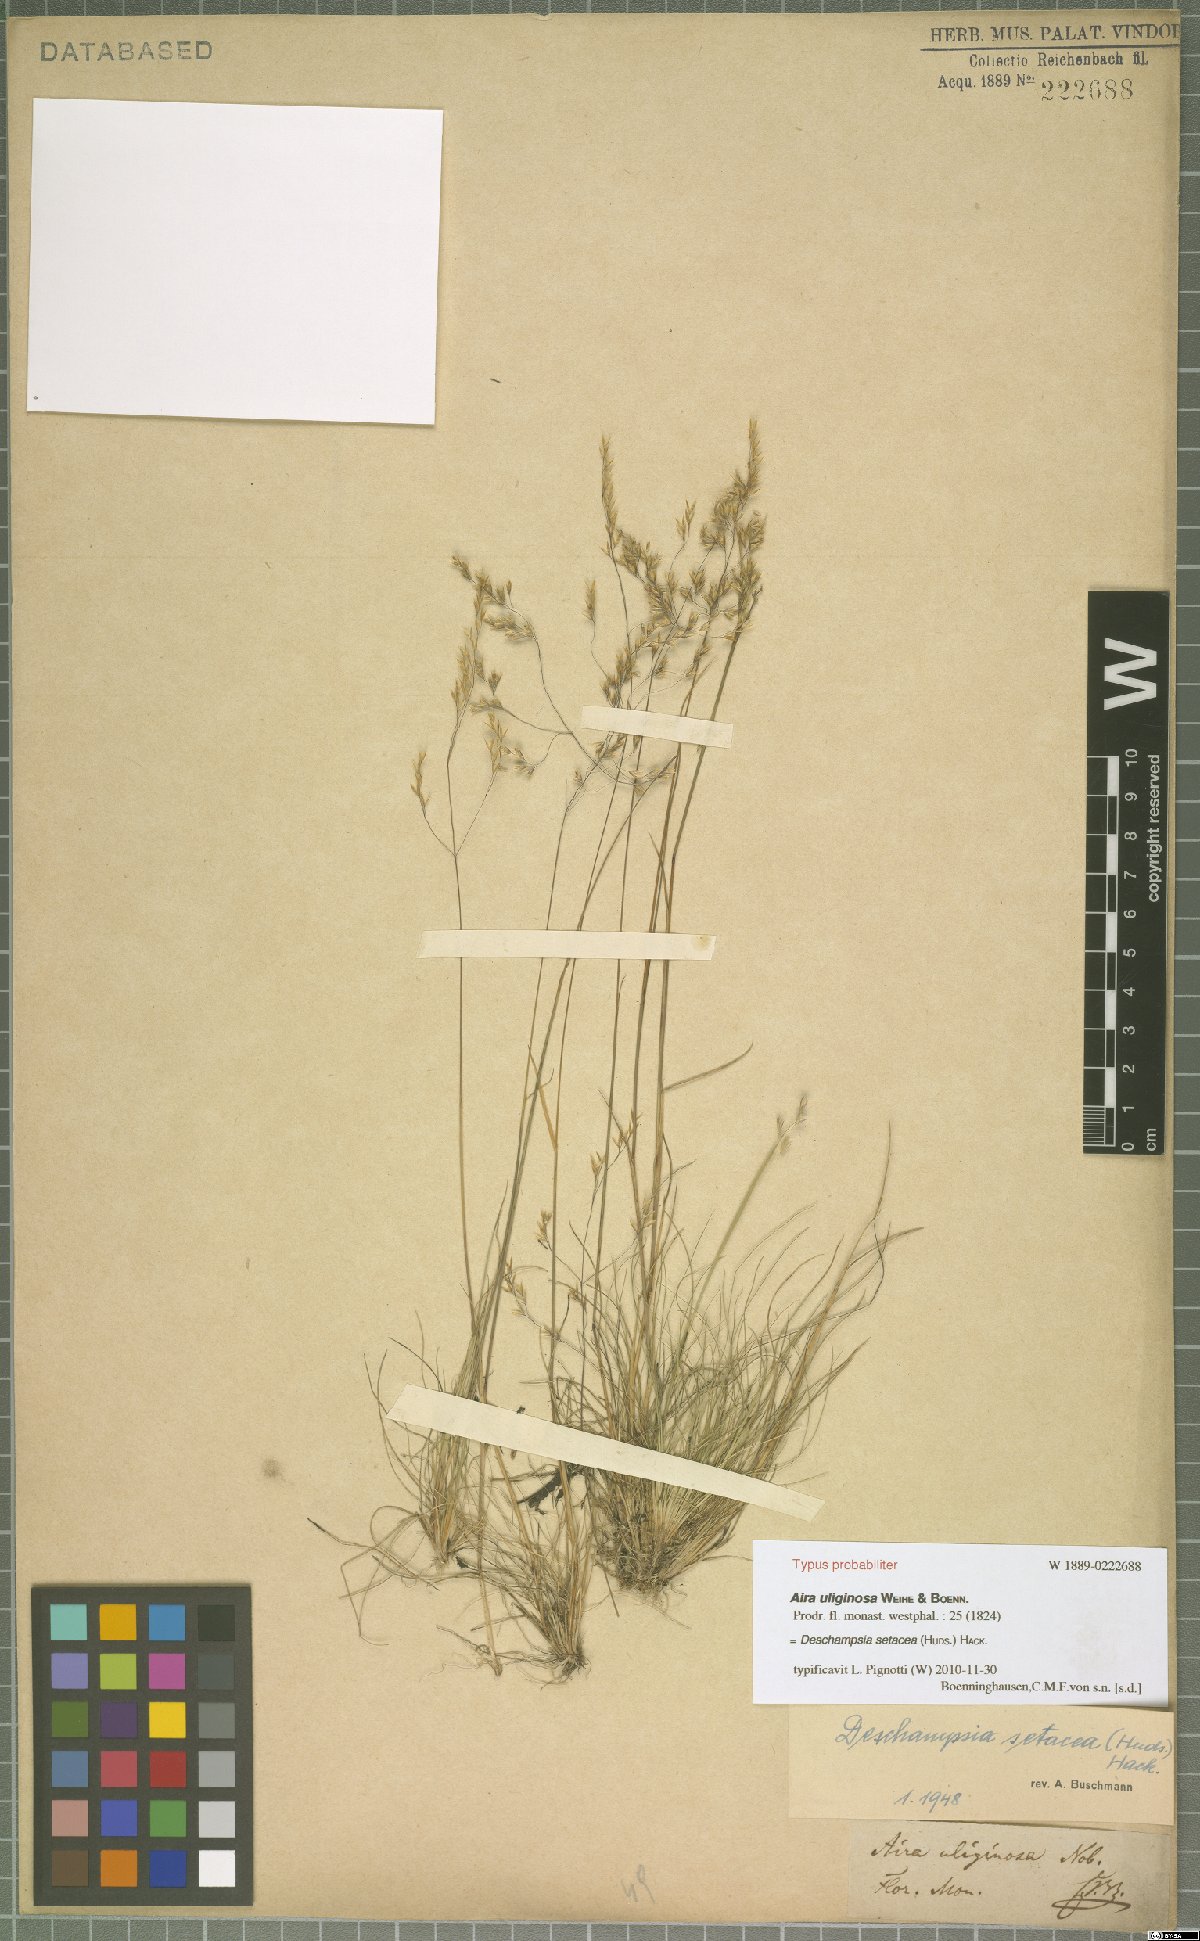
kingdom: Plantae
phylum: Tracheophyta
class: Liliopsida
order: Poales
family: Poaceae
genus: Deschampsia
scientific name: Deschampsia setacea
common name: Bog hair-grass
